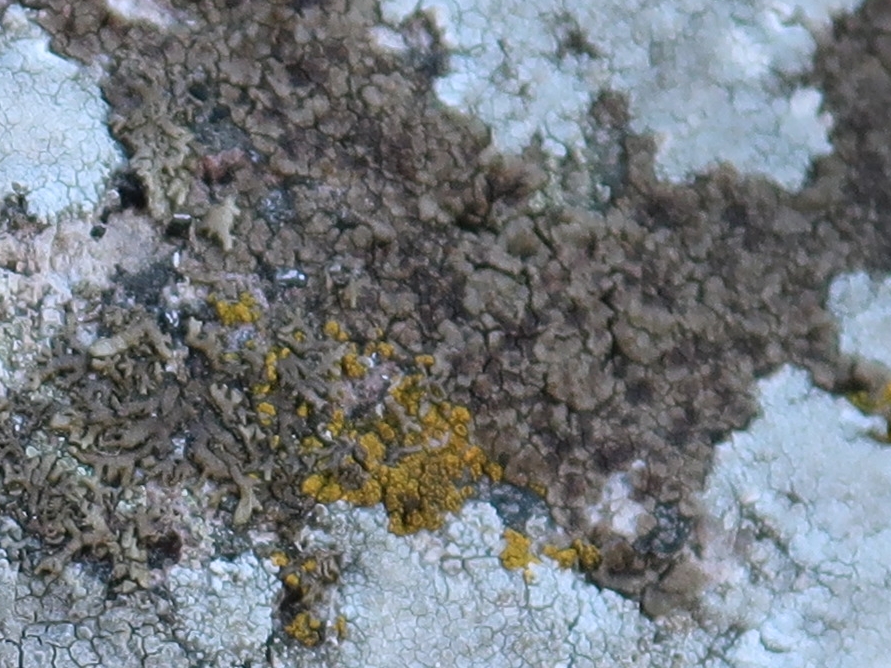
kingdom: Fungi
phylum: Ascomycota
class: Lecanoromycetes
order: Acarosporales
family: Acarosporaceae
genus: Acarospora
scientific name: Acarospora fuscata
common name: brun småsporelav
